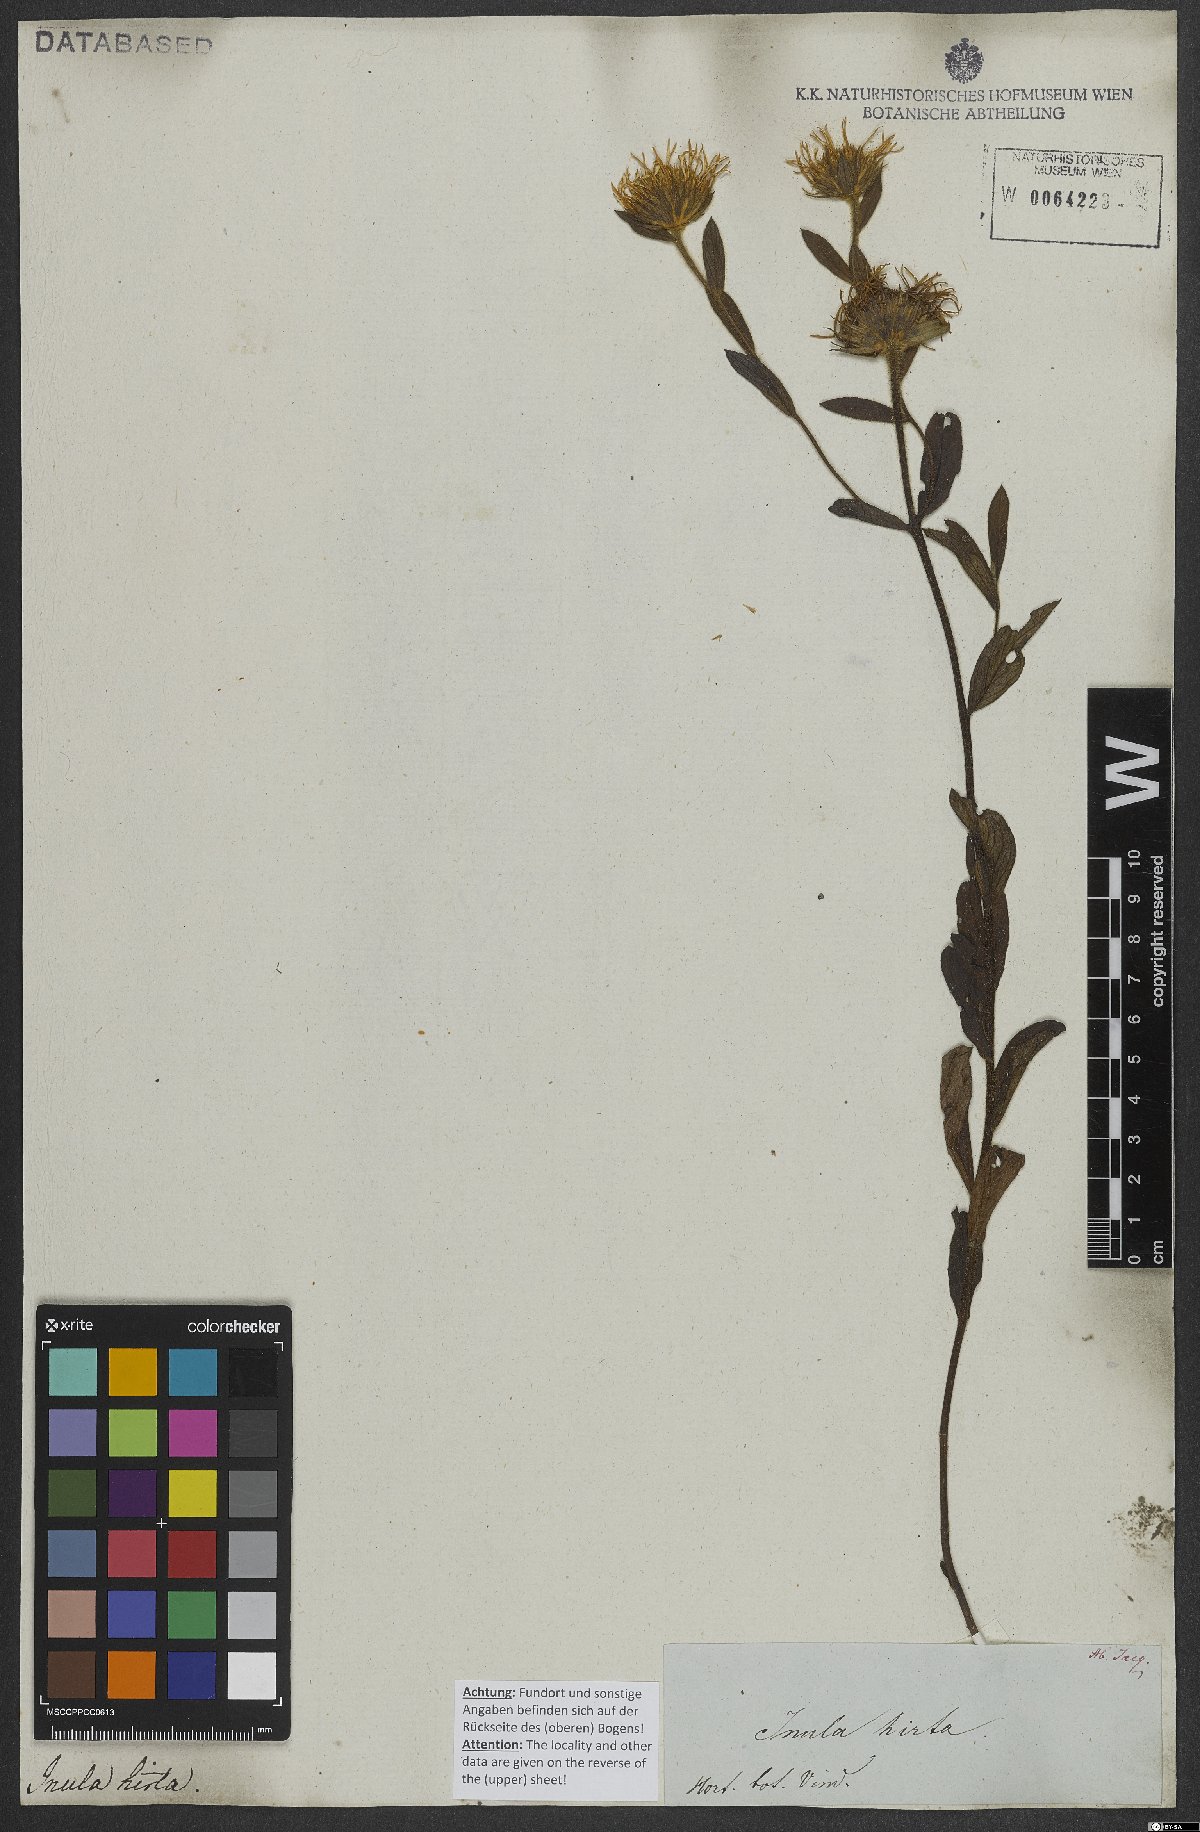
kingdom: Plantae
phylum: Tracheophyta
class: Magnoliopsida
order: Asterales
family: Asteraceae
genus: Pentanema
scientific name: Pentanema hirtum
